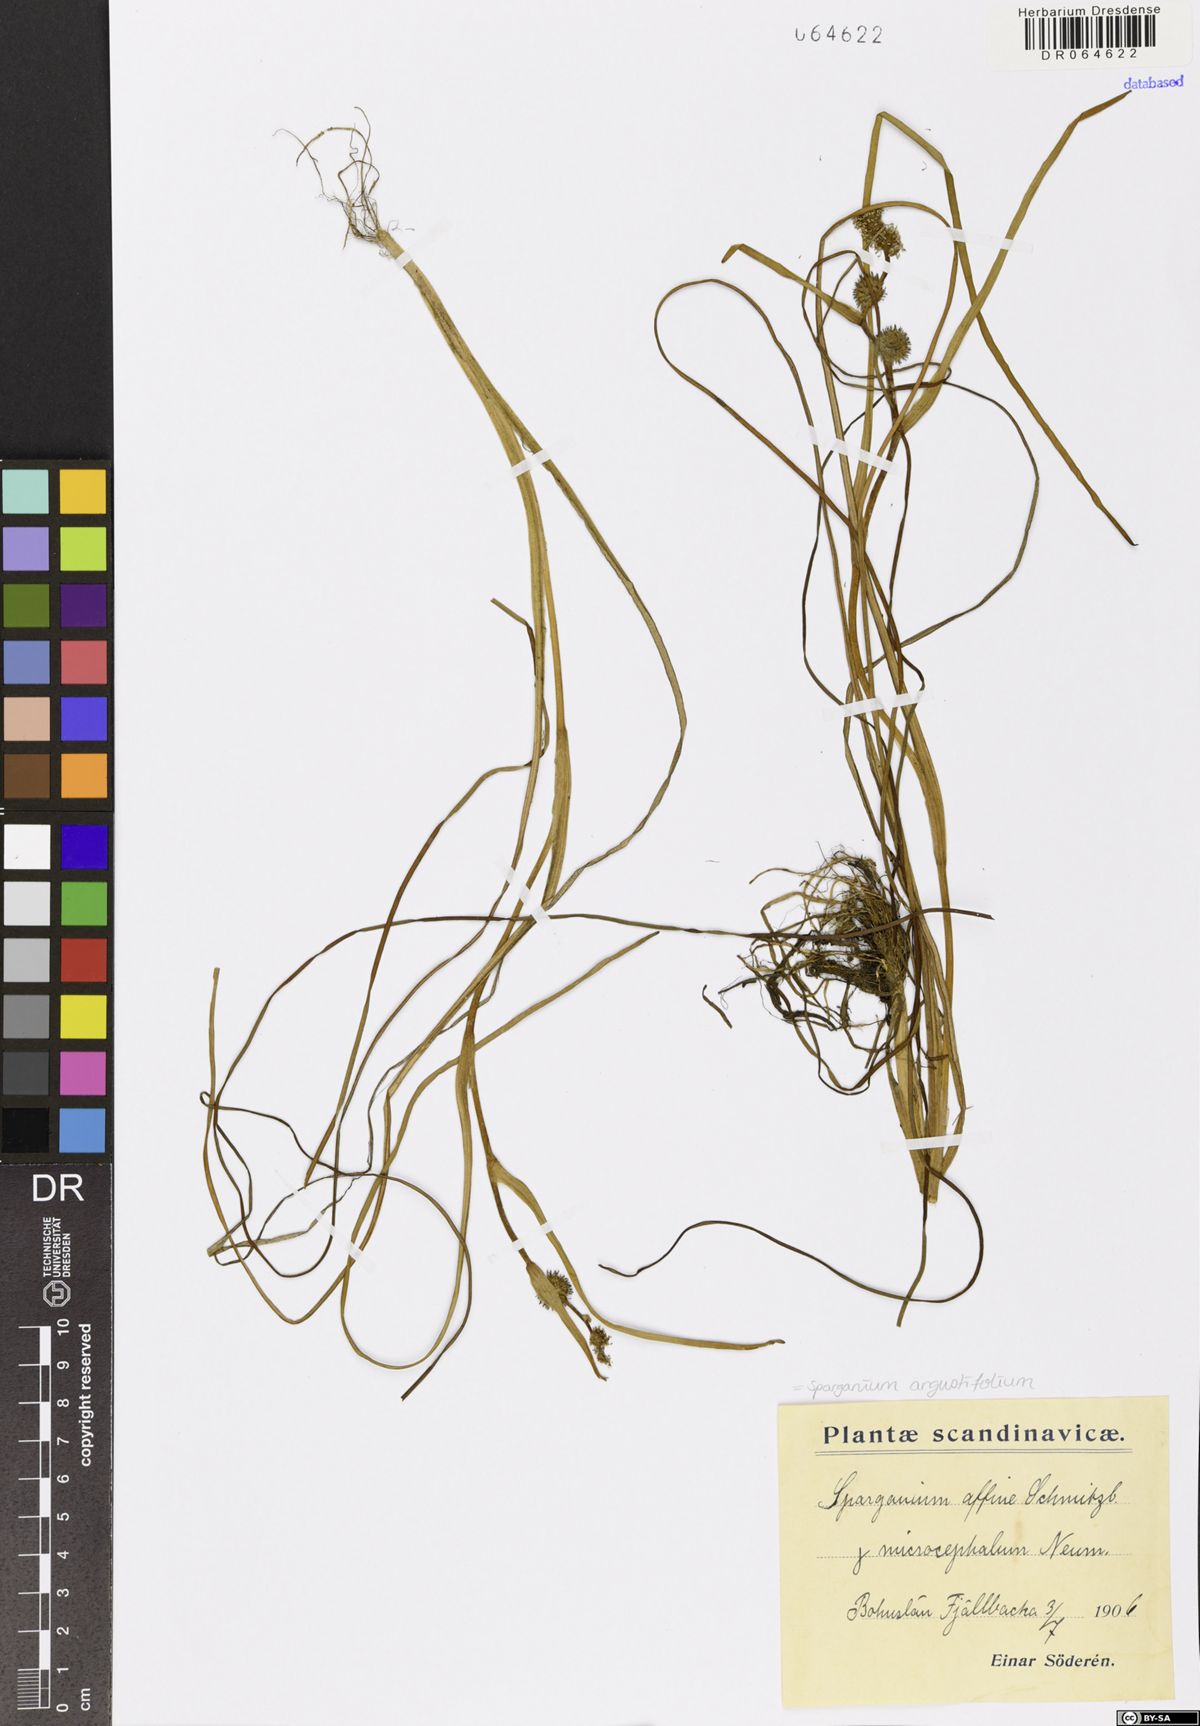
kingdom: Plantae
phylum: Tracheophyta
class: Liliopsida
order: Poales
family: Typhaceae
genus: Sparganium
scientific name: Sparganium angustifolium
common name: Floating bur-reed
